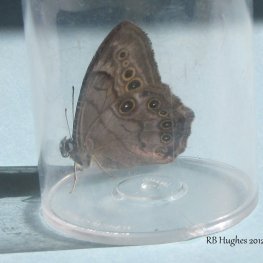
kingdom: Animalia
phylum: Arthropoda
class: Insecta
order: Lepidoptera
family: Nymphalidae
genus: Lethe
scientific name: Lethe anthedon
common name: Northern Pearly-Eye
